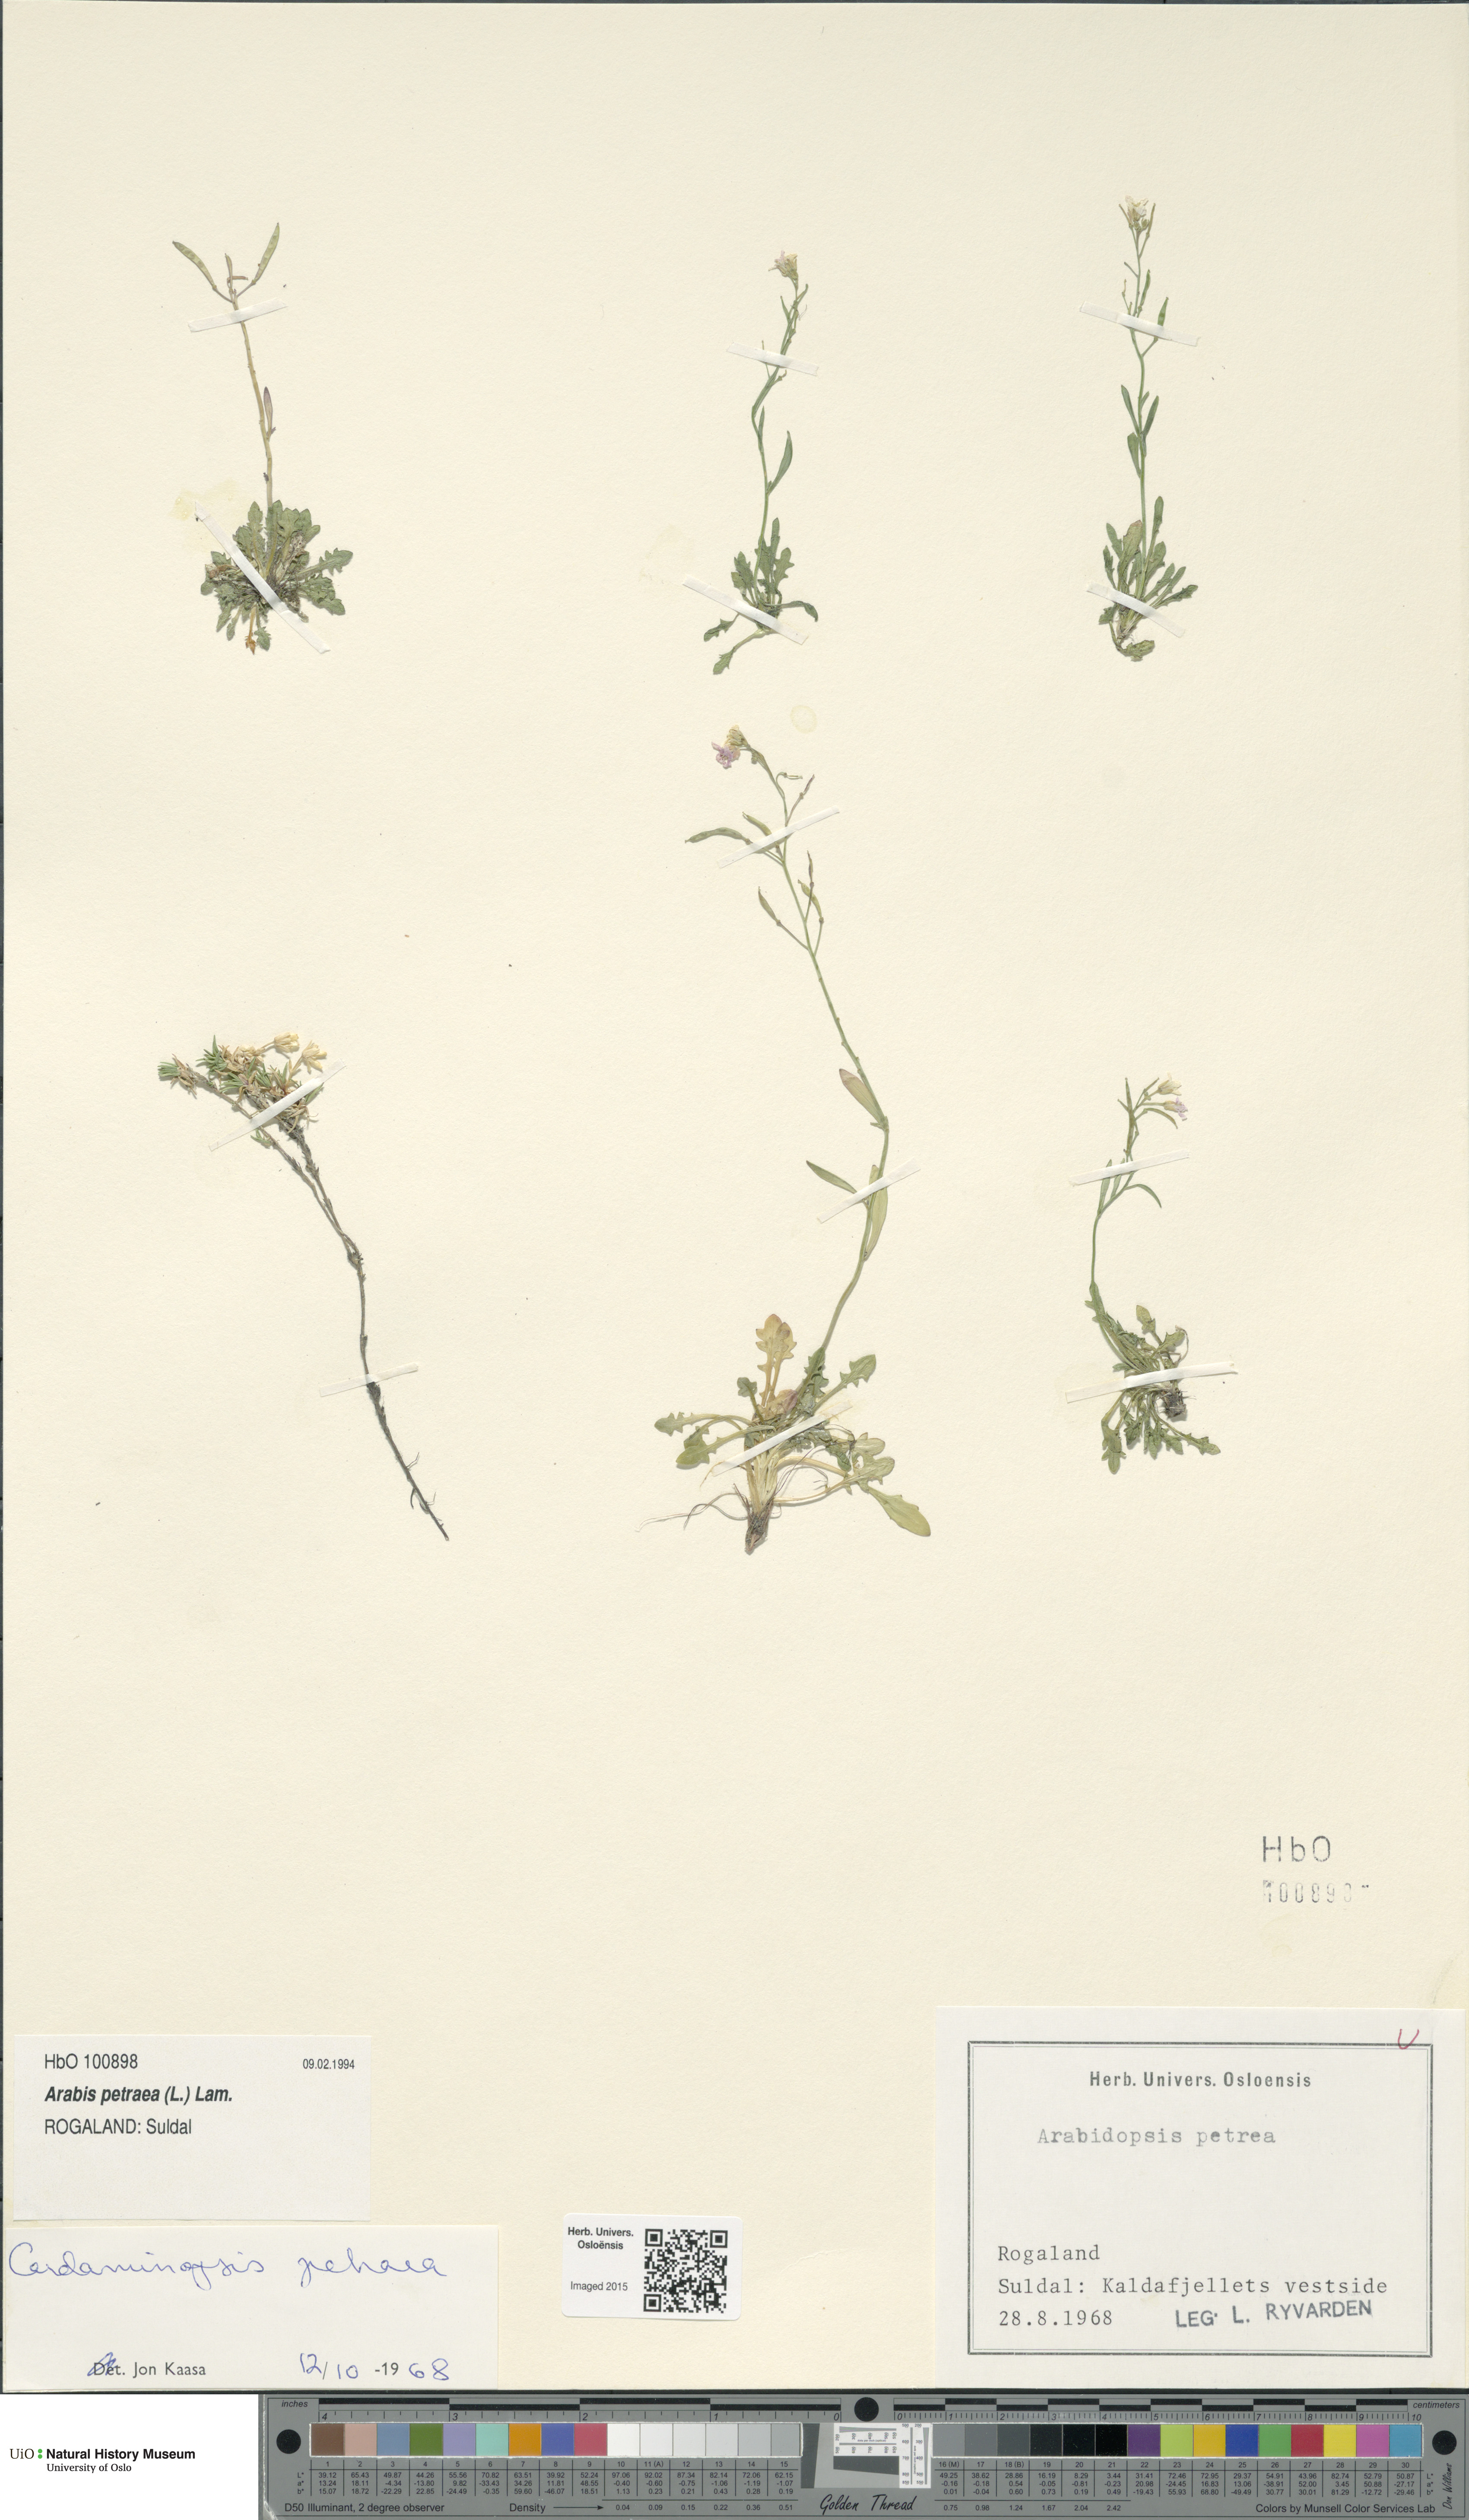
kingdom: Plantae
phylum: Tracheophyta
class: Magnoliopsida
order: Brassicales
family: Brassicaceae
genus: Arabidopsis
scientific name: Arabidopsis petraea
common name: Northern rock-cress
